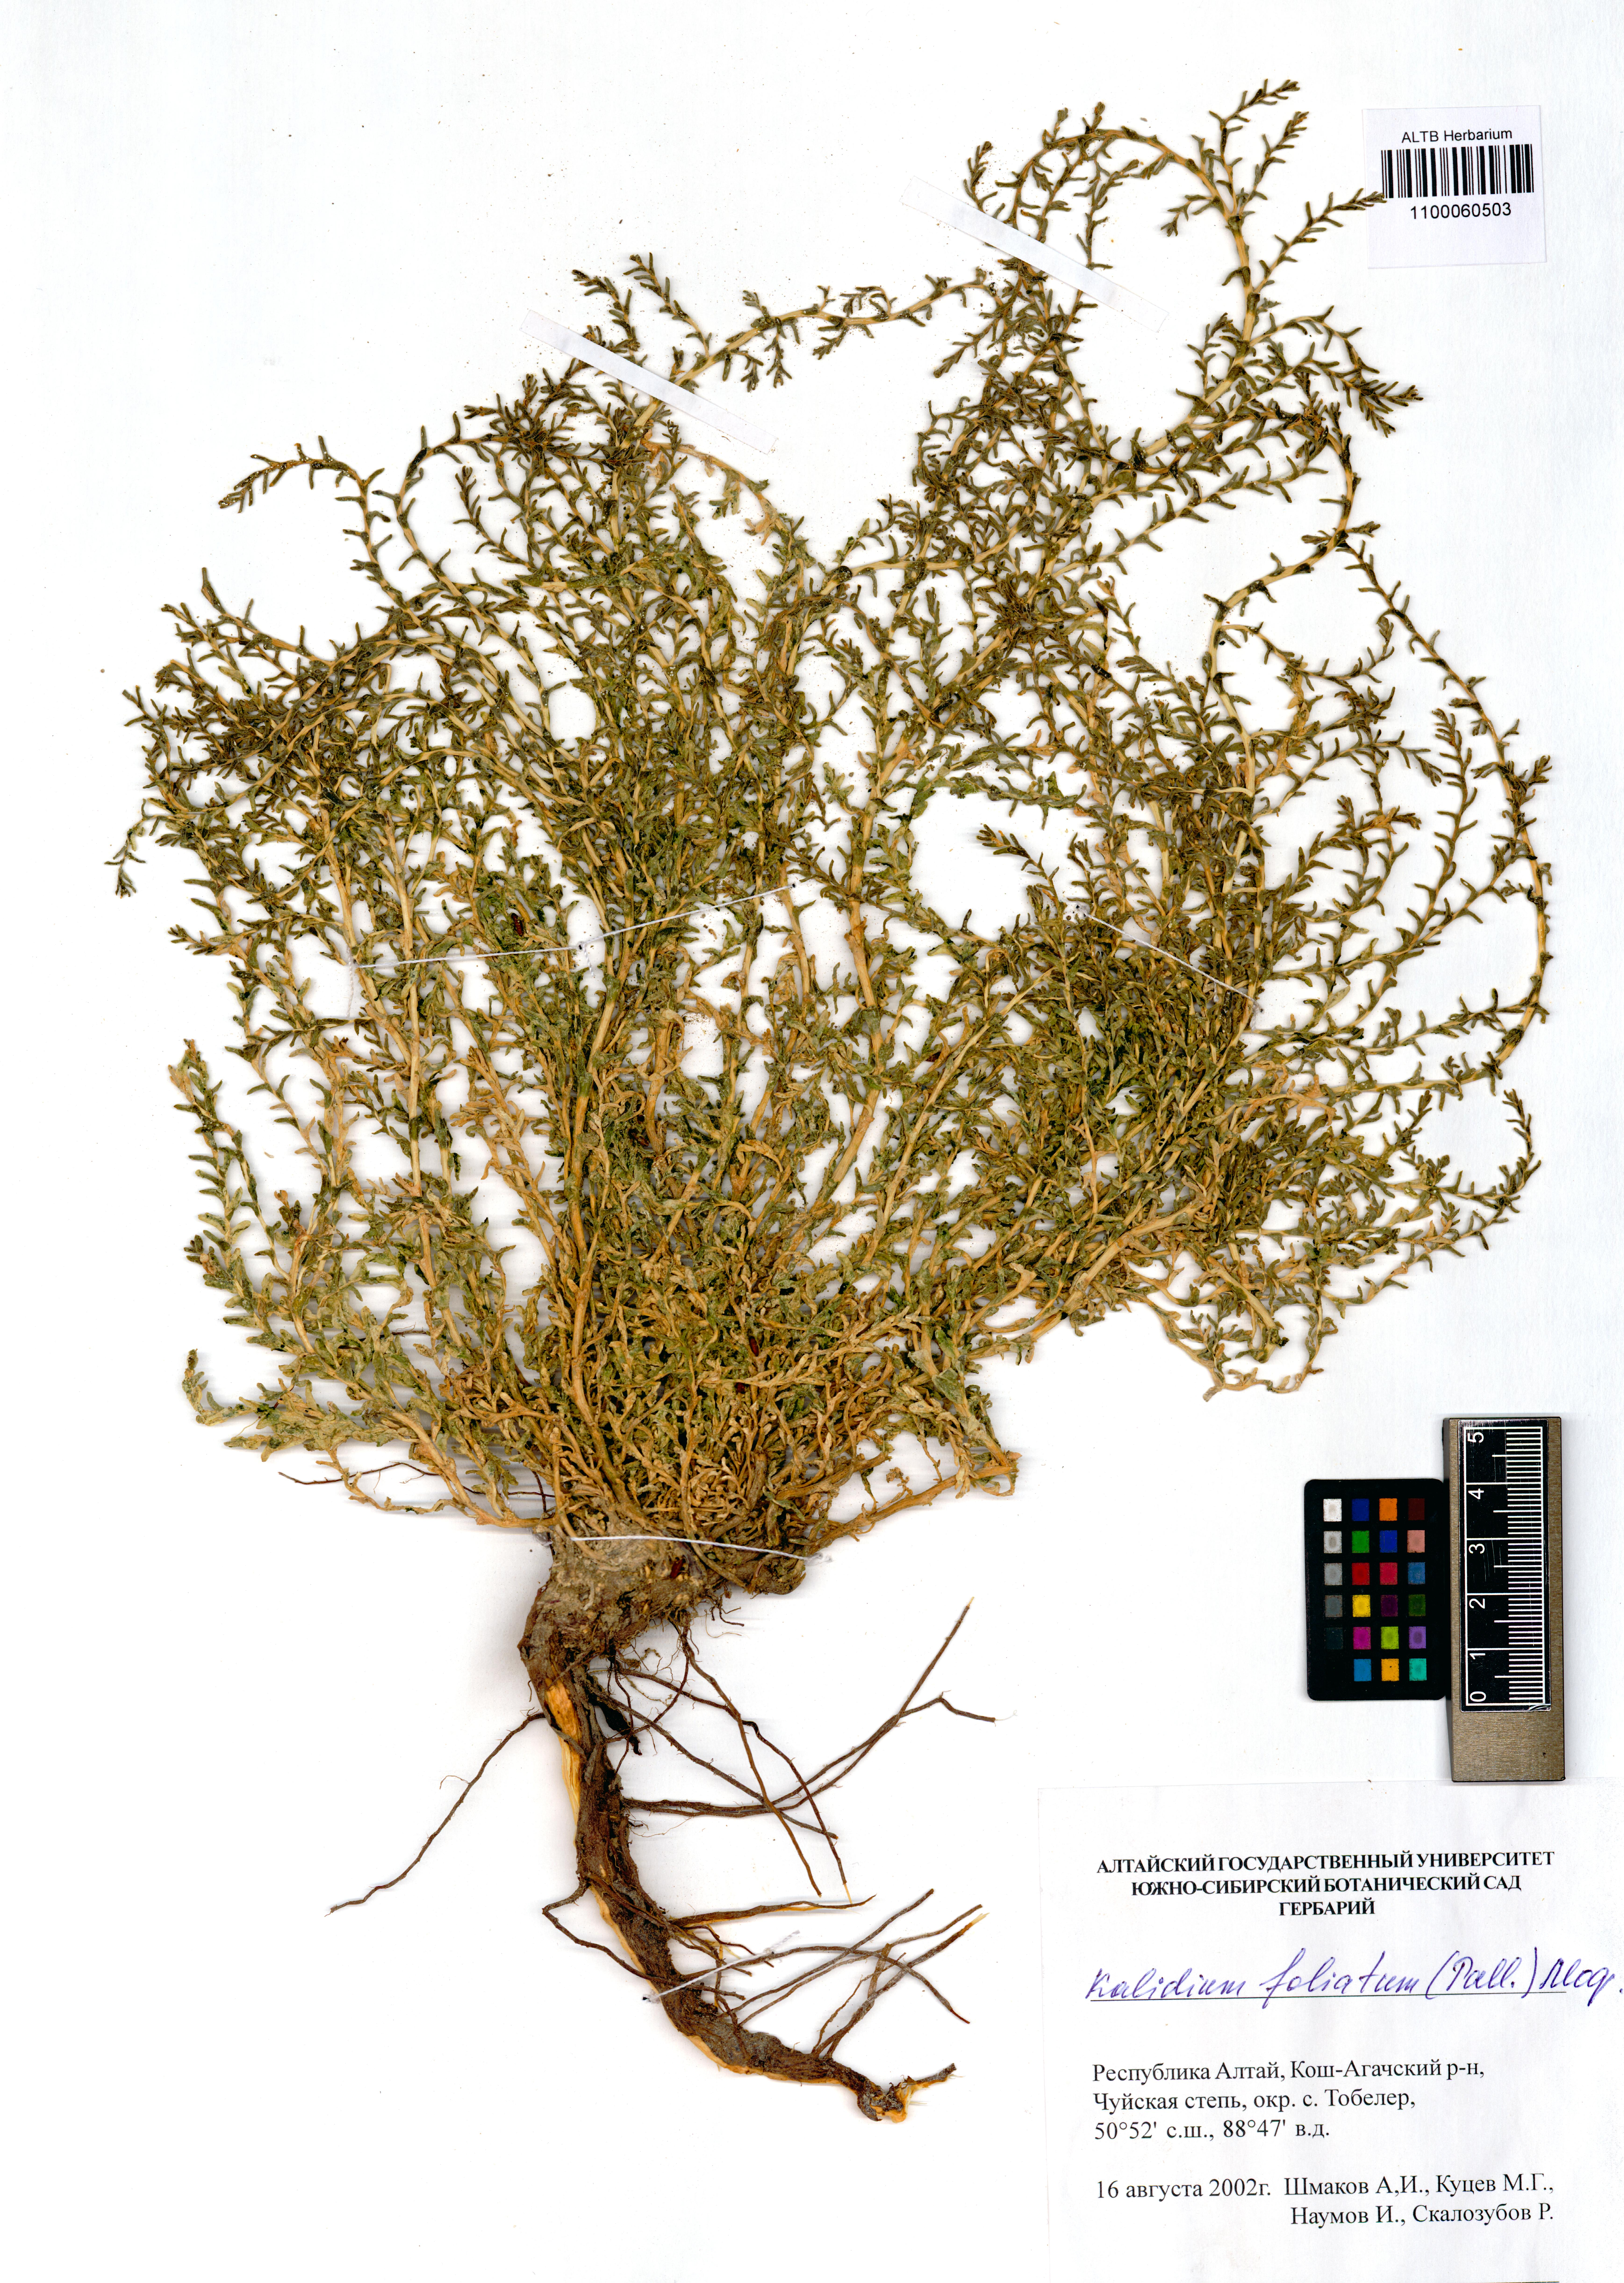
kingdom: Plantae
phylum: Tracheophyta
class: Magnoliopsida
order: Caryophyllales
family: Amaranthaceae
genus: Kalidium
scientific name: Kalidium foliatum
